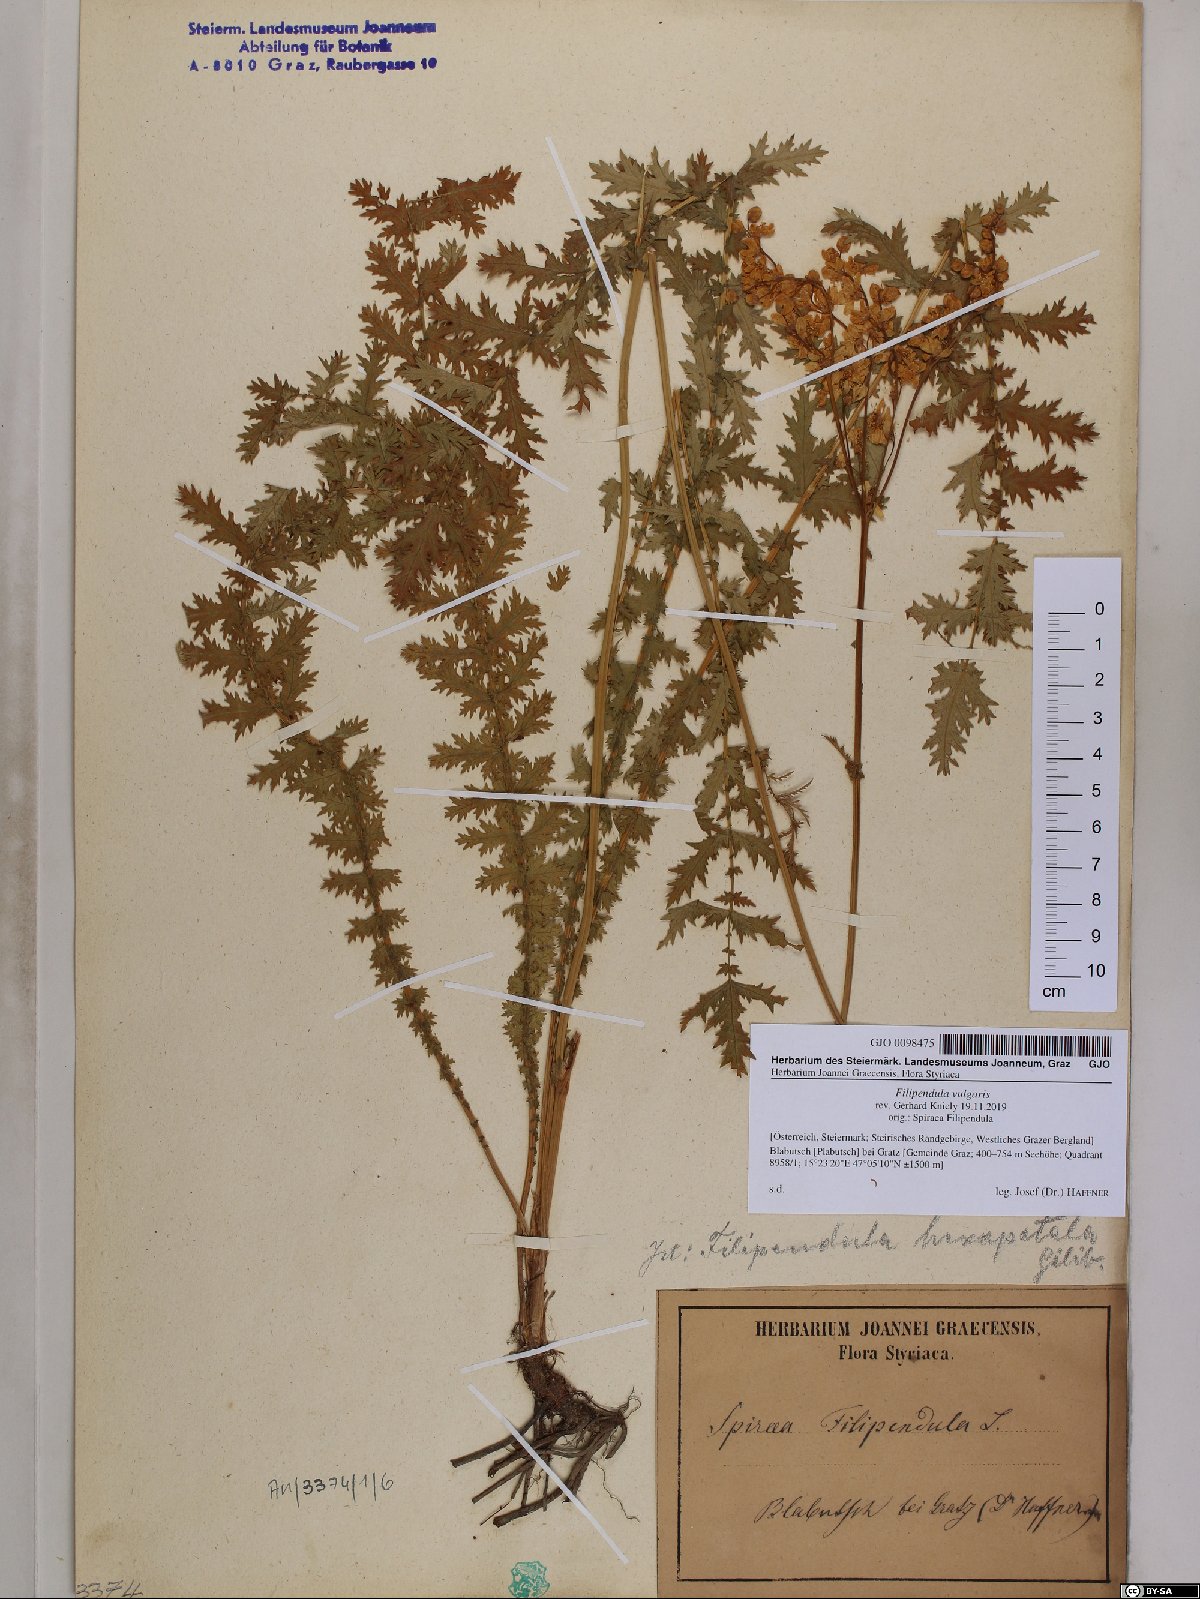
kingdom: Plantae
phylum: Tracheophyta
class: Magnoliopsida
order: Rosales
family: Rosaceae
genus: Filipendula
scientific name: Filipendula vulgaris
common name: Dropwort
